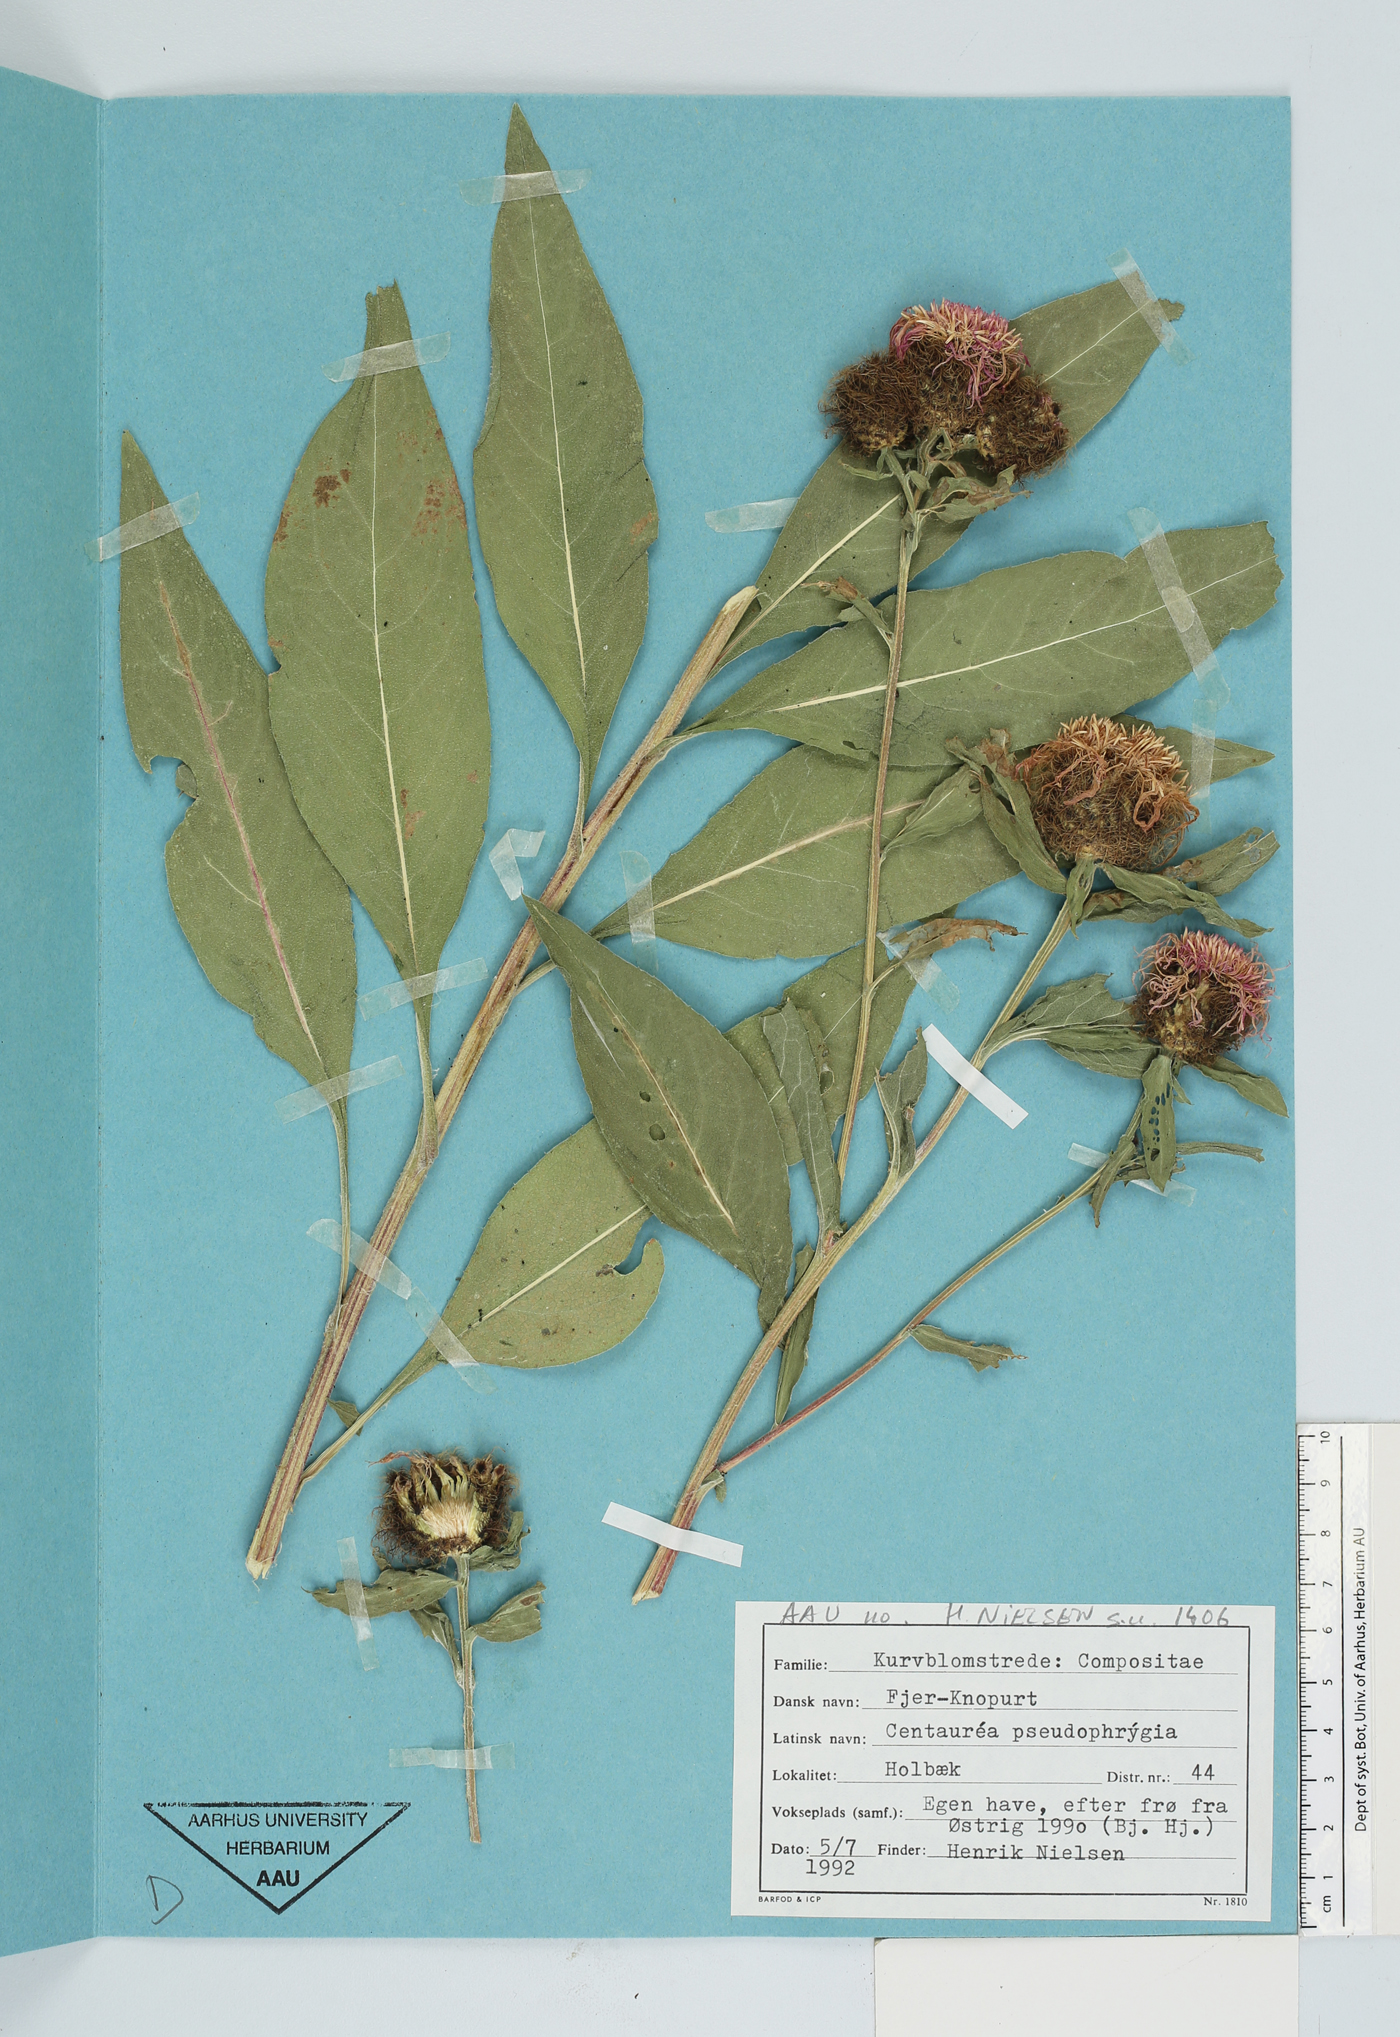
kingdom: Plantae
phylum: Tracheophyta
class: Magnoliopsida
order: Asterales
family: Asteraceae
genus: Centaurea
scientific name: Centaurea pseudophrygia
